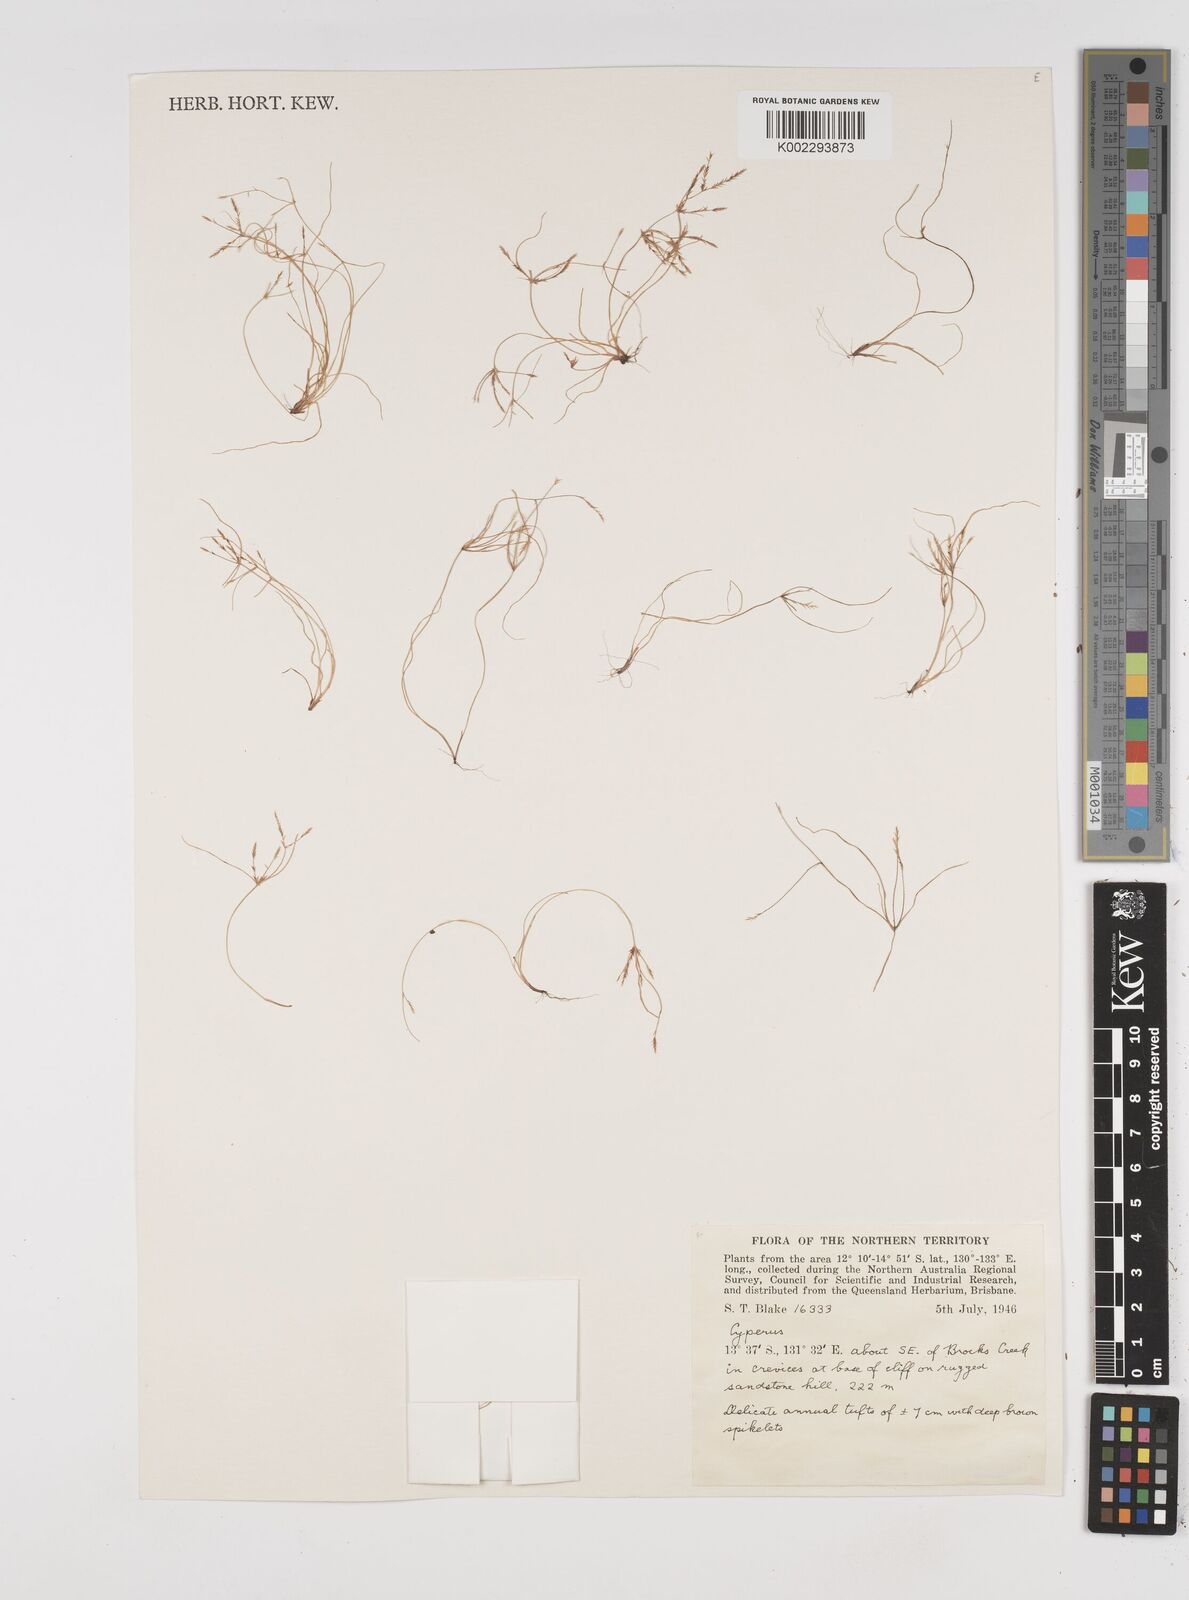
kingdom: Plantae
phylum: Tracheophyta
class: Liliopsida
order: Poales
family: Cyperaceae
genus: Cyperus
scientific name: Cyperus
